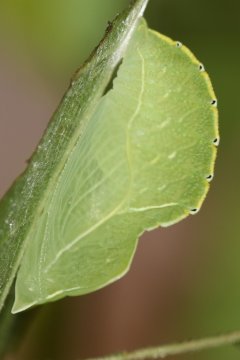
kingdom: Animalia
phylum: Arthropoda
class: Insecta
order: Lepidoptera
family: Nymphalidae
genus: Asterocampa
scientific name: Asterocampa celtis
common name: Hackberry Emperor
